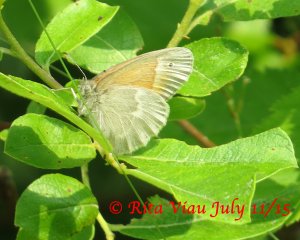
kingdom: Animalia
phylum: Arthropoda
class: Insecta
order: Lepidoptera
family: Nymphalidae
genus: Coenonympha
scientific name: Coenonympha tullia
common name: Large Heath
